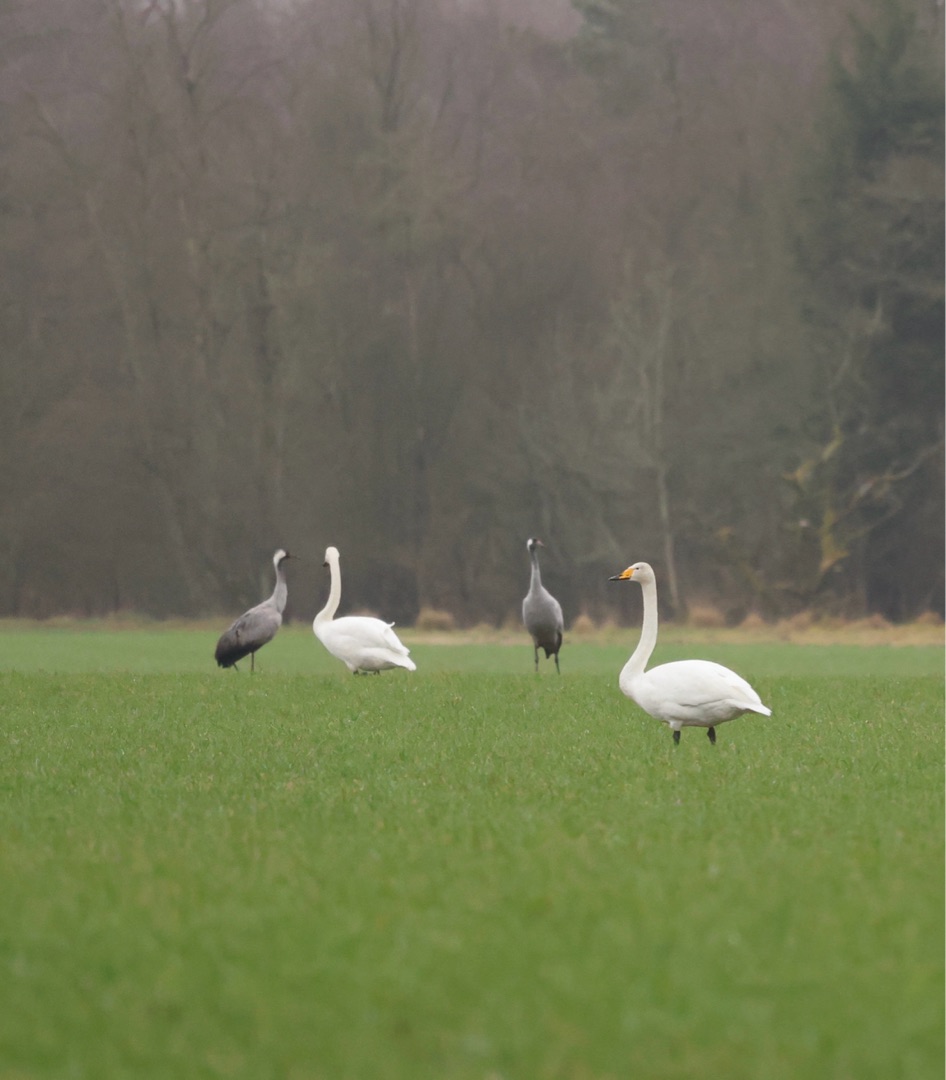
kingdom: Animalia
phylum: Chordata
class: Aves
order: Gruiformes
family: Gruidae
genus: Grus
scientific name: Grus grus
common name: Trane
